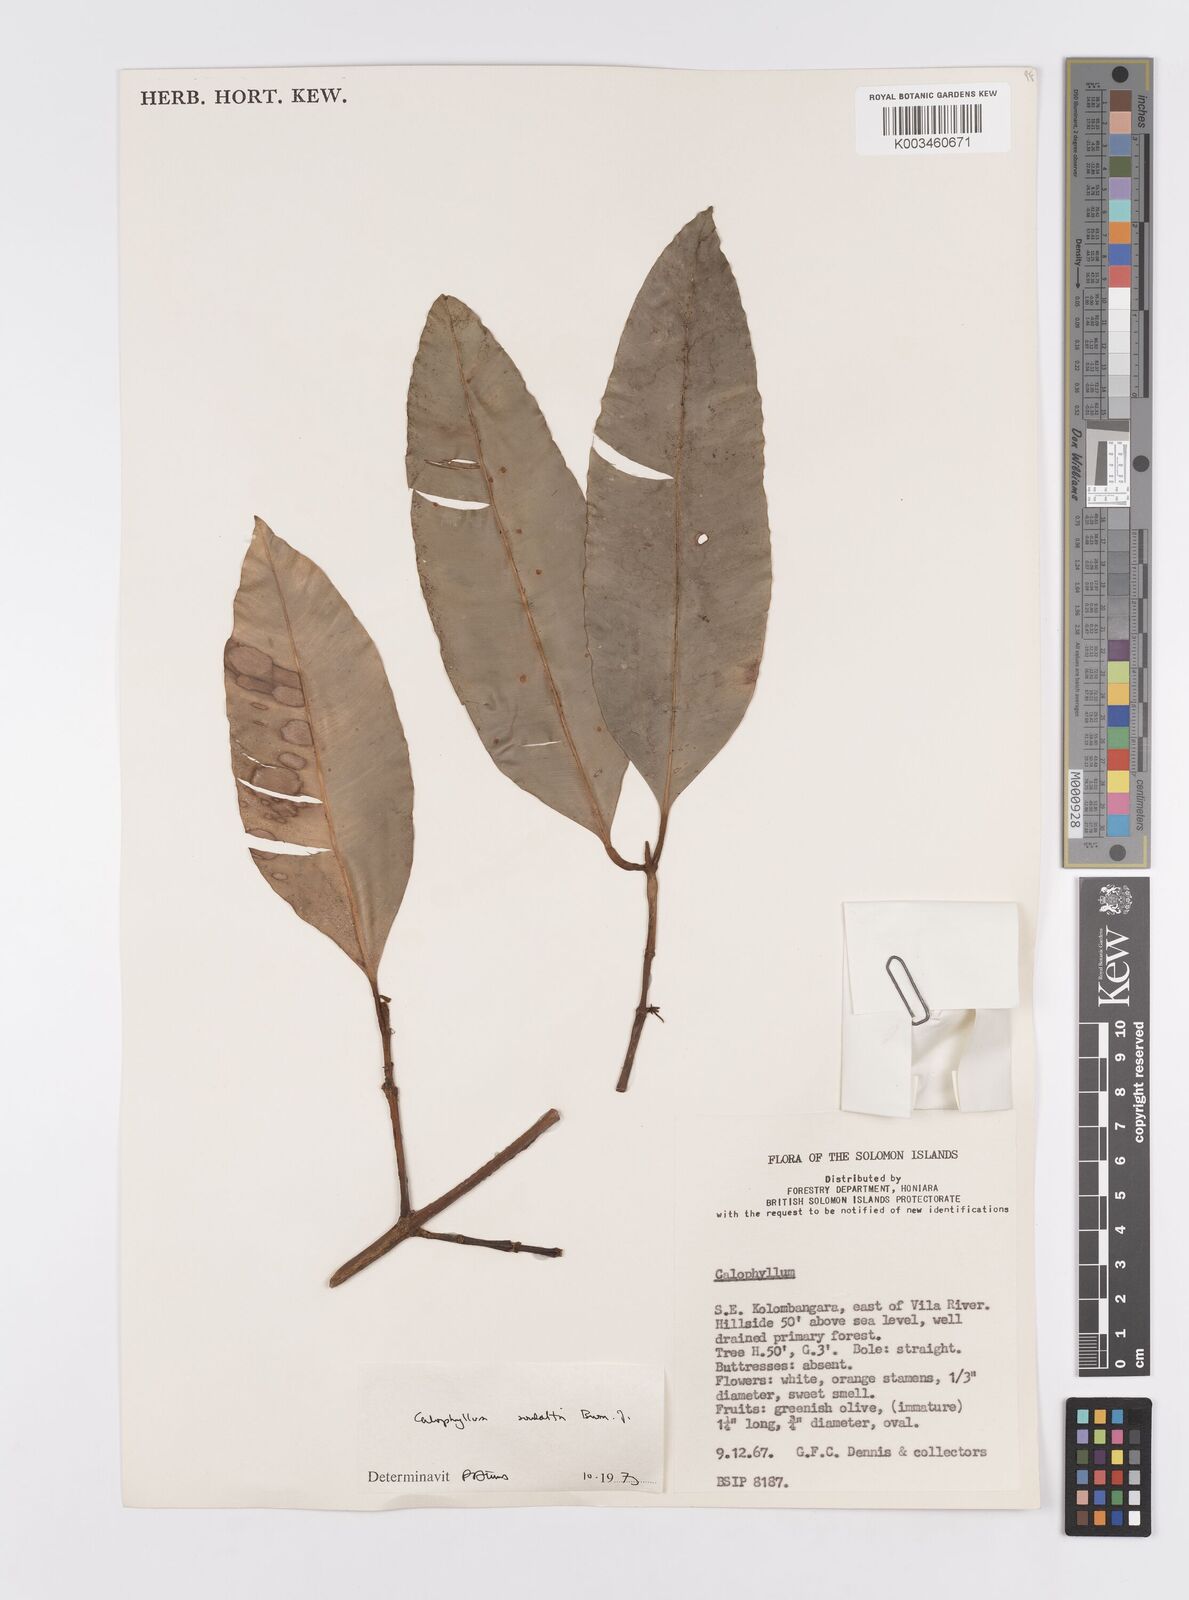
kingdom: Plantae
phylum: Tracheophyta
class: Magnoliopsida
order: Malpighiales
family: Calophyllaceae
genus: Calophyllum
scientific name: Calophyllum soulattri
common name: Bitangoor boonot
